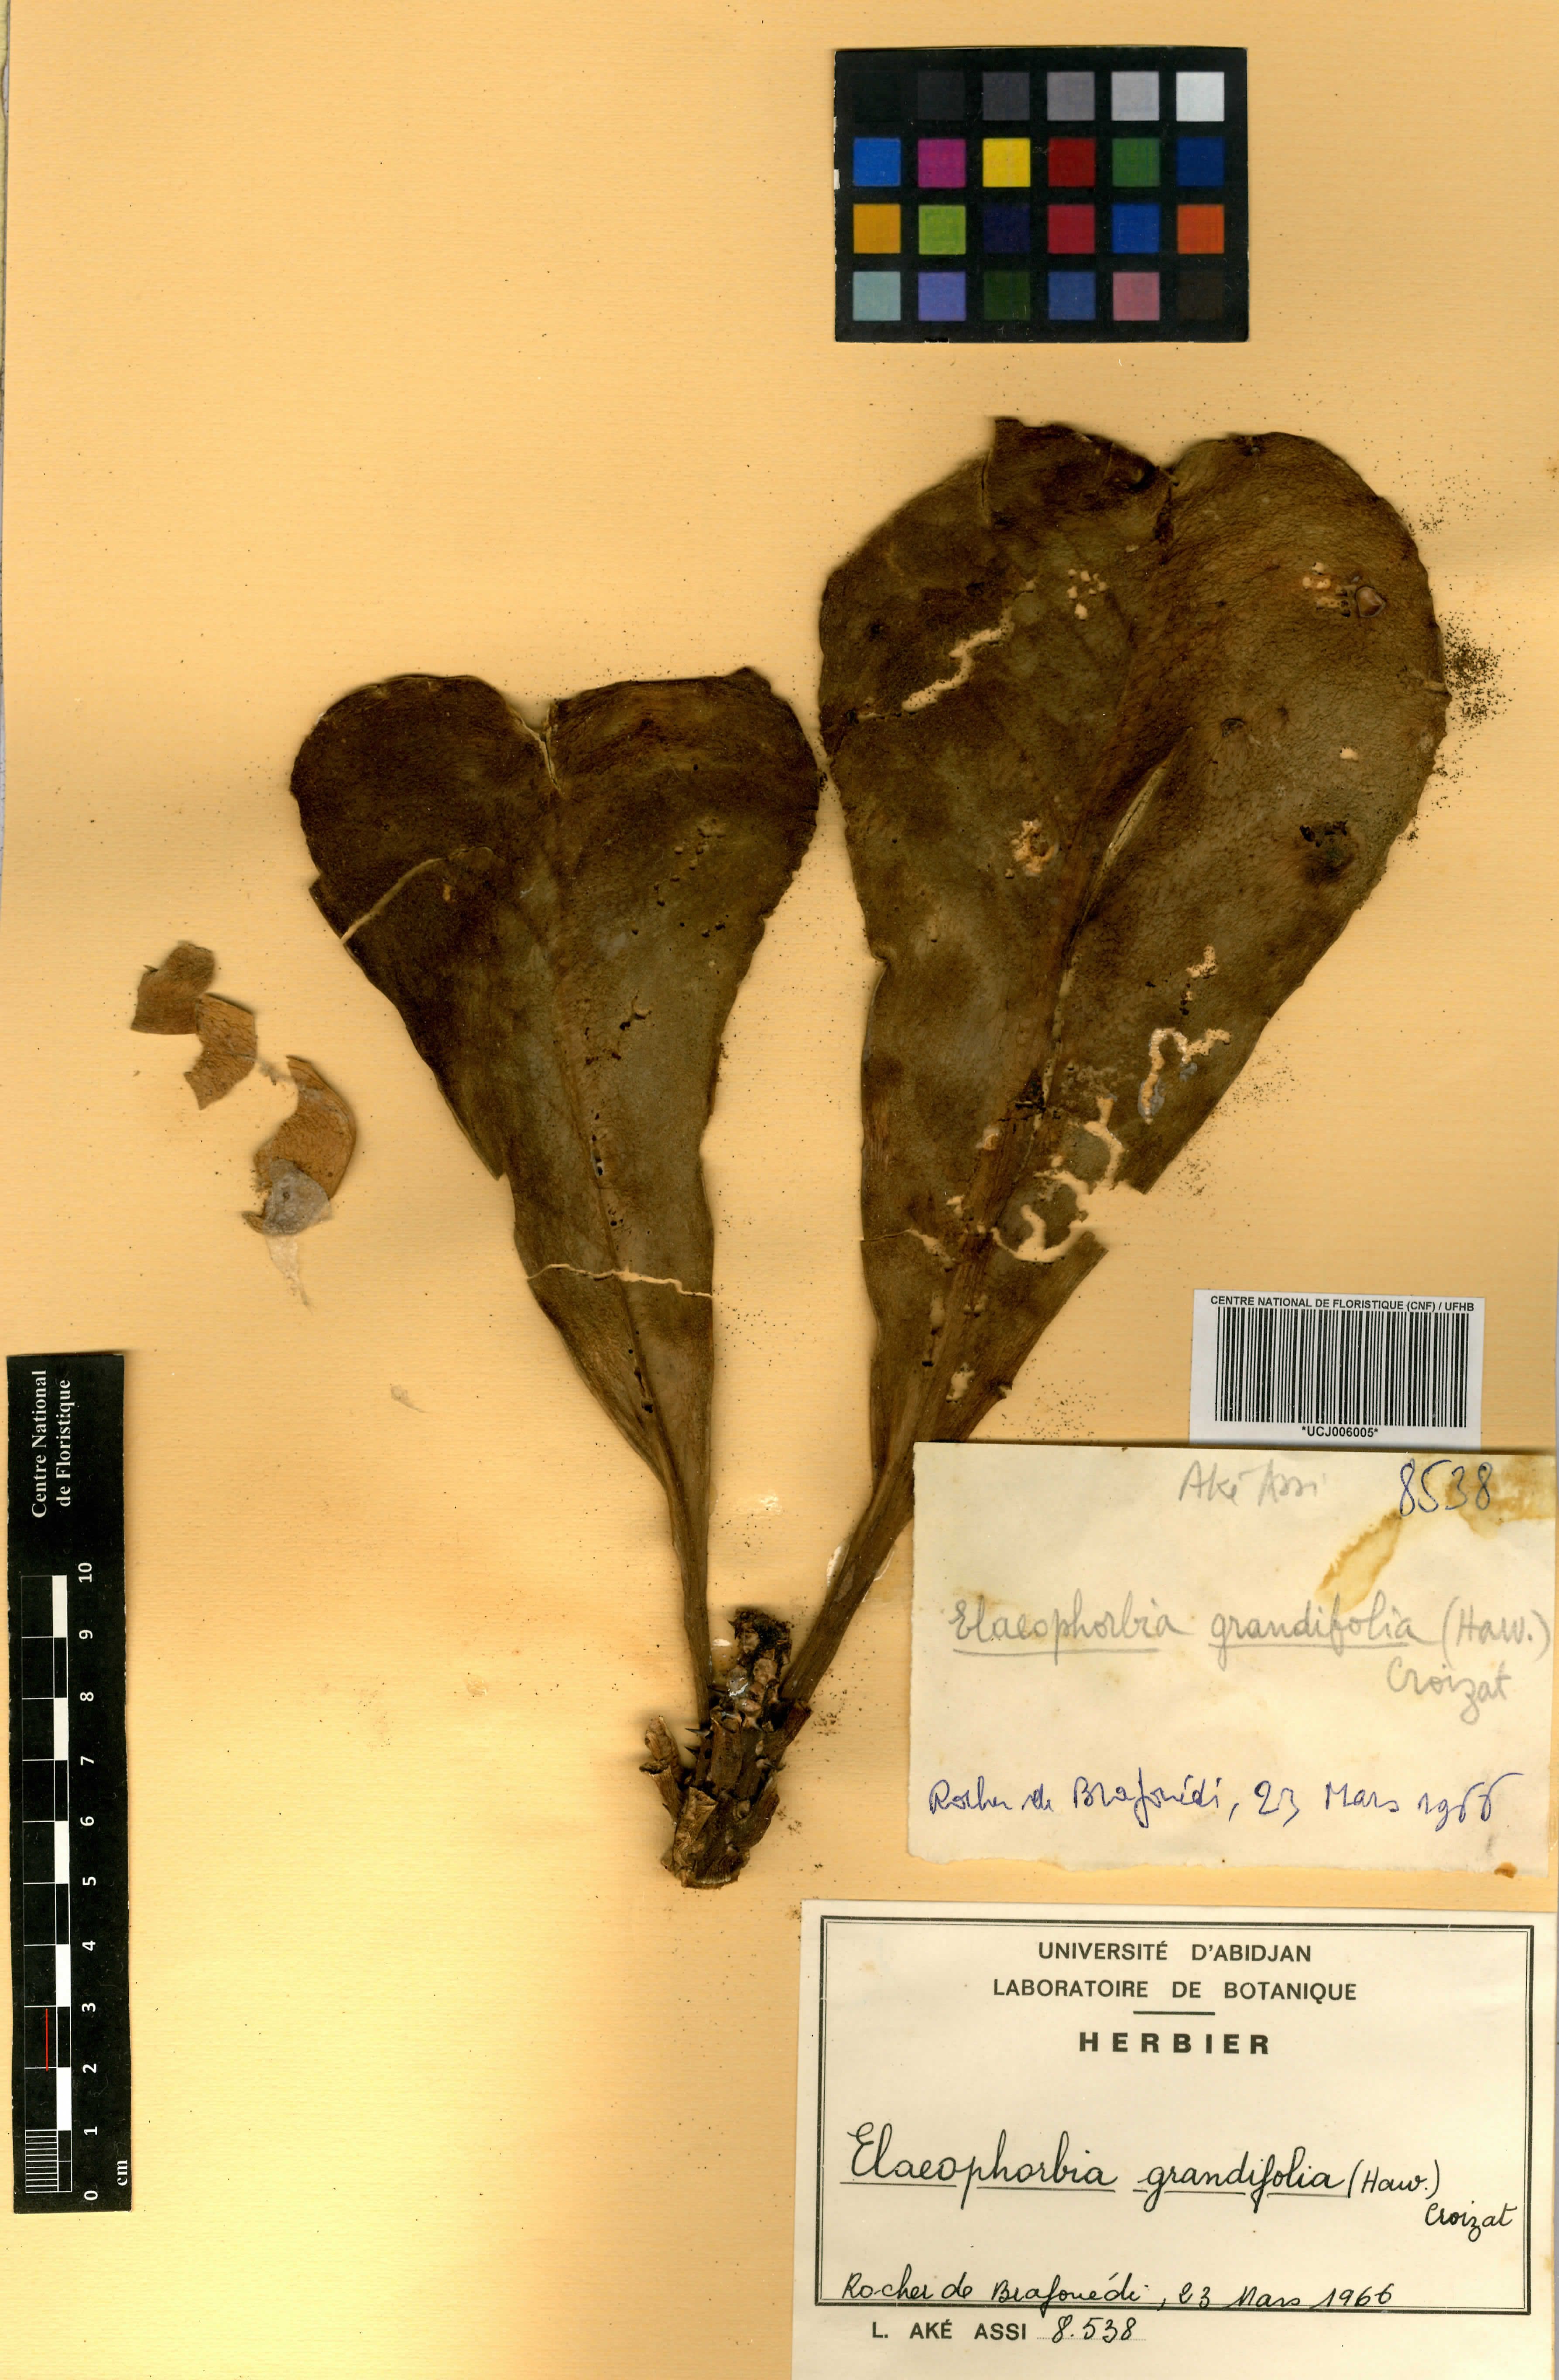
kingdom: Plantae
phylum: Tracheophyta
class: Magnoliopsida
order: Malpighiales
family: Euphorbiaceae
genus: Euphorbia
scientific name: Euphorbia grandifolia
